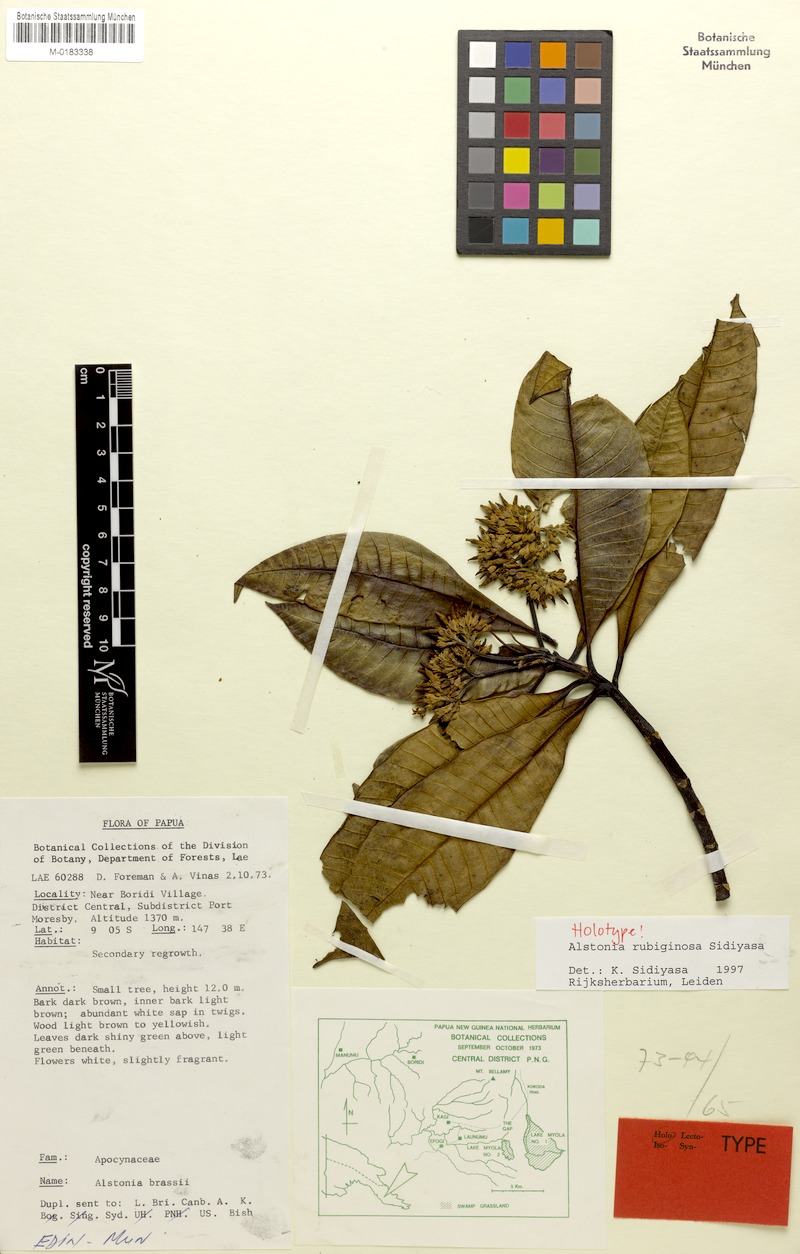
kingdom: Plantae
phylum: Tracheophyta
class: Magnoliopsida
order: Gentianales
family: Apocynaceae
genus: Alstonia
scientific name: Alstonia rubiginosa
